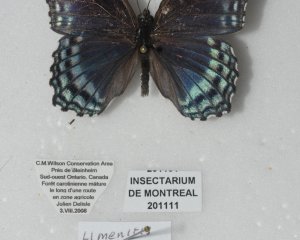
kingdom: Animalia
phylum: Arthropoda
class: Insecta
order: Lepidoptera
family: Nymphalidae
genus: Limenitis
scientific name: Limenitis astyanax
